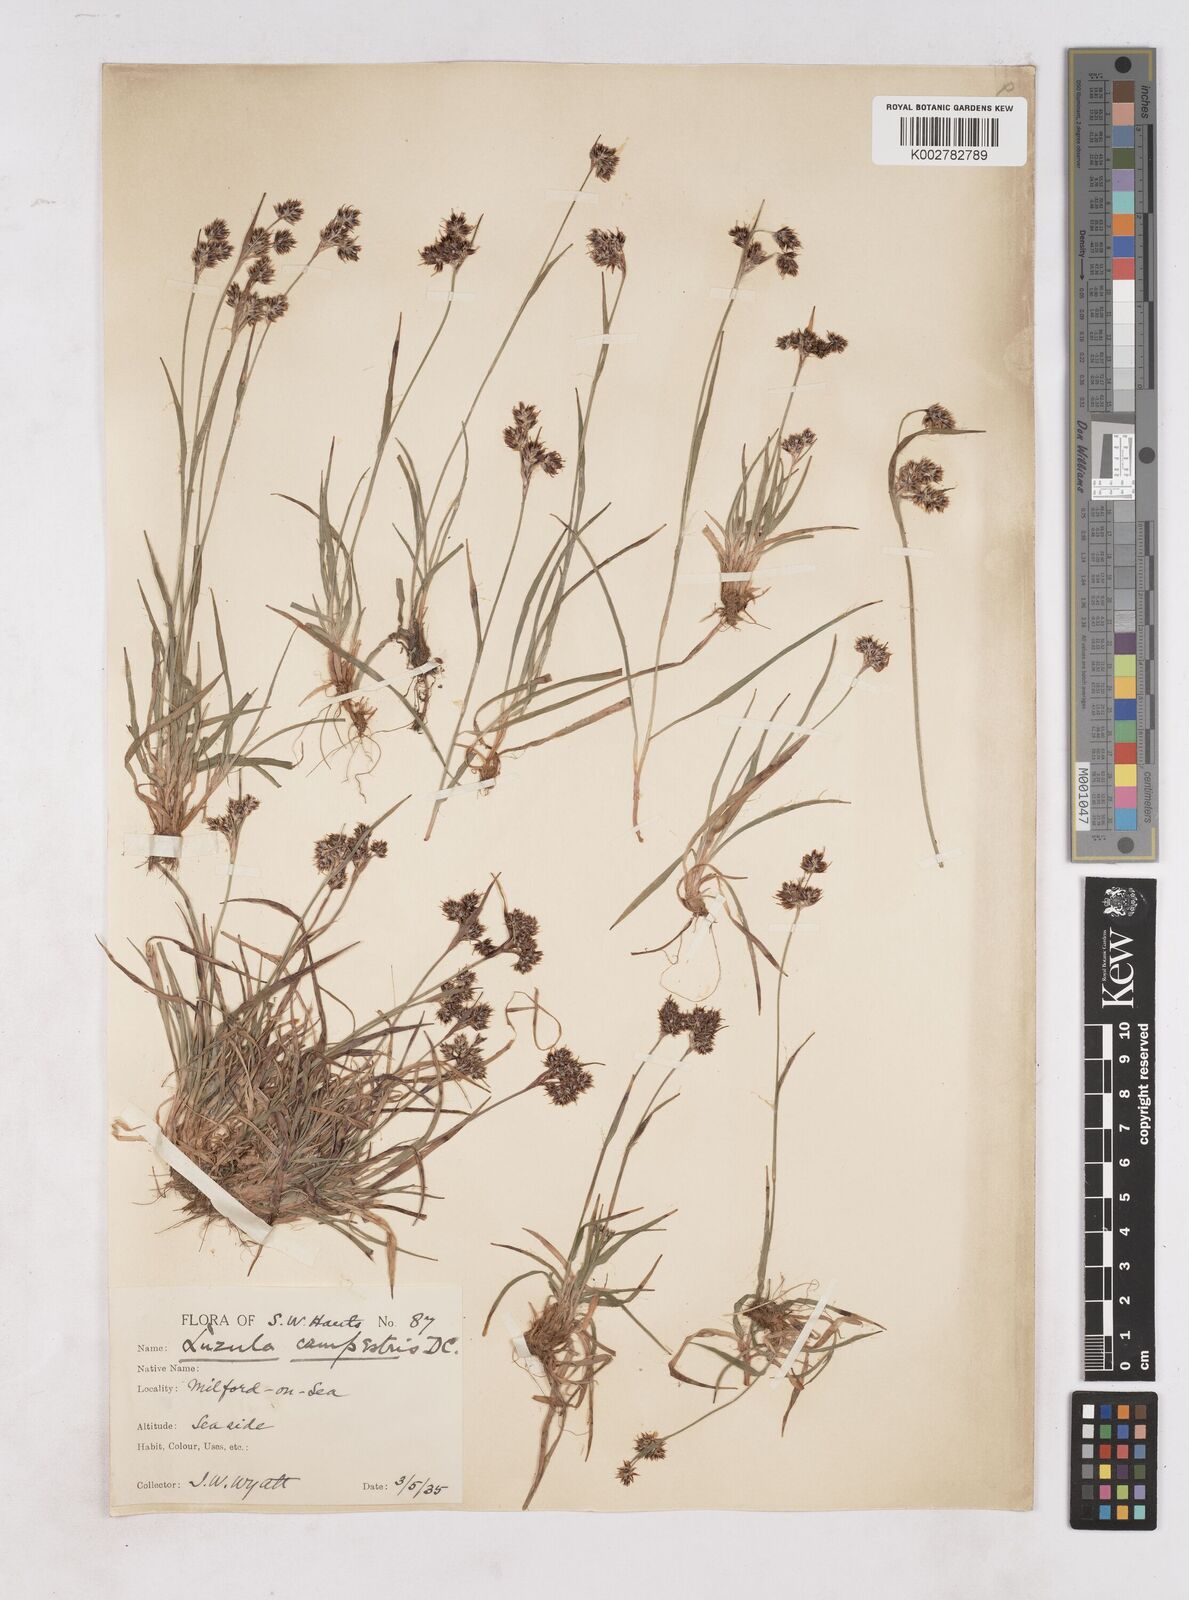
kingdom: Plantae
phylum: Tracheophyta
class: Liliopsida
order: Poales
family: Juncaceae
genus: Luzula
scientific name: Luzula campestris
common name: Field wood-rush
